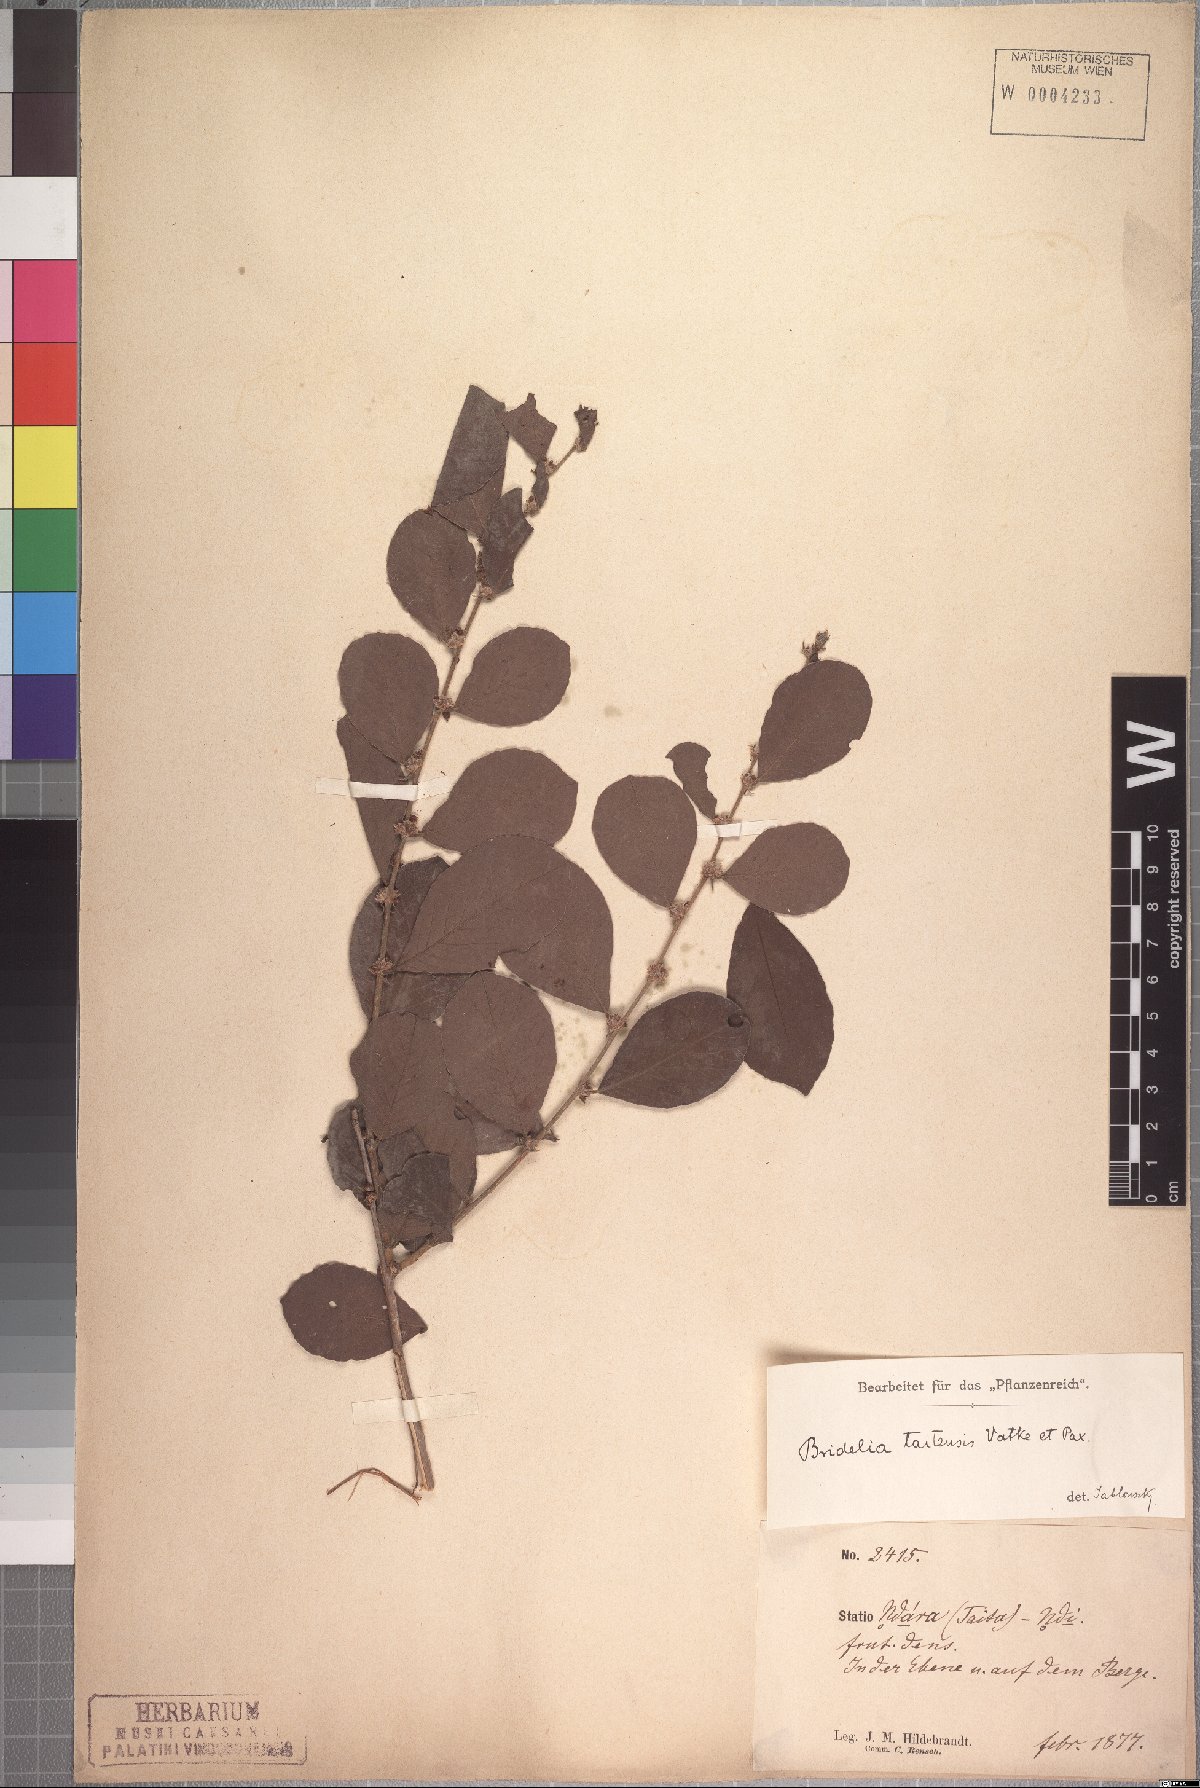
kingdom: Plantae
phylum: Tracheophyta
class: Magnoliopsida
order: Malpighiales
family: Phyllanthaceae
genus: Bridelia
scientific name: Bridelia taitensis
